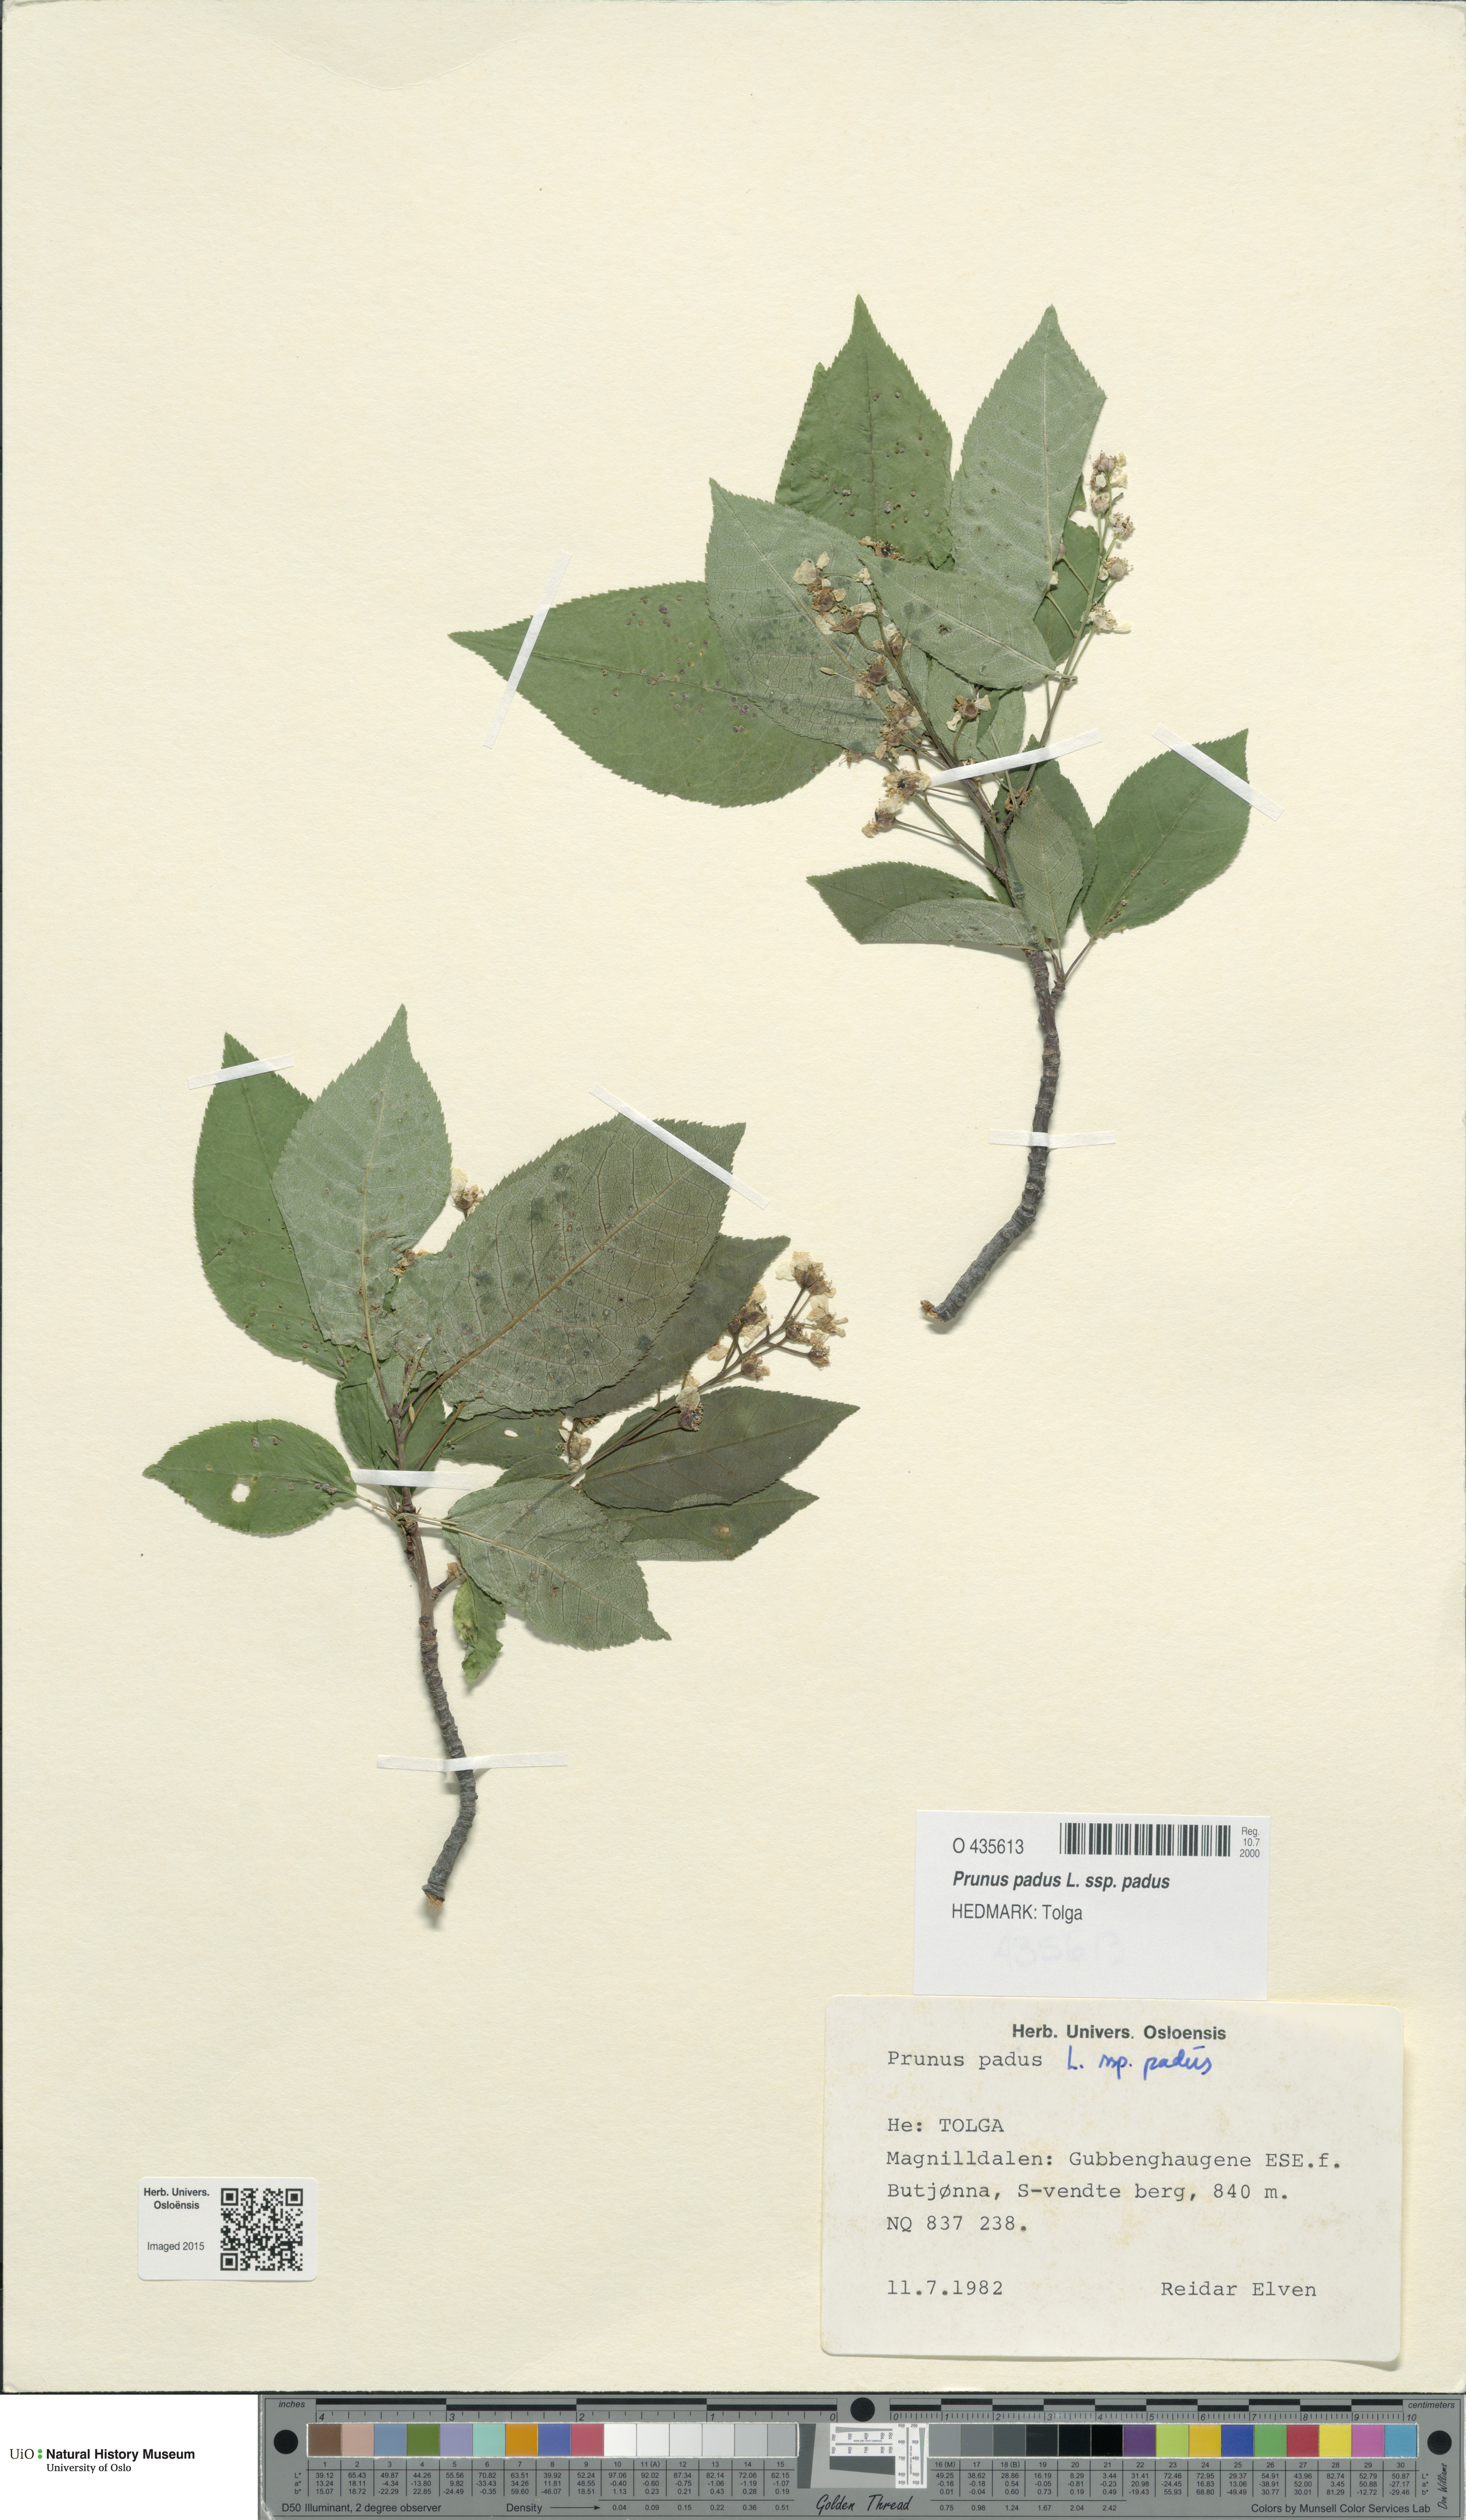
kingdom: Plantae
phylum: Tracheophyta
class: Magnoliopsida
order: Rosales
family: Rosaceae
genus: Prunus
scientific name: Prunus padus
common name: Bird cherry
